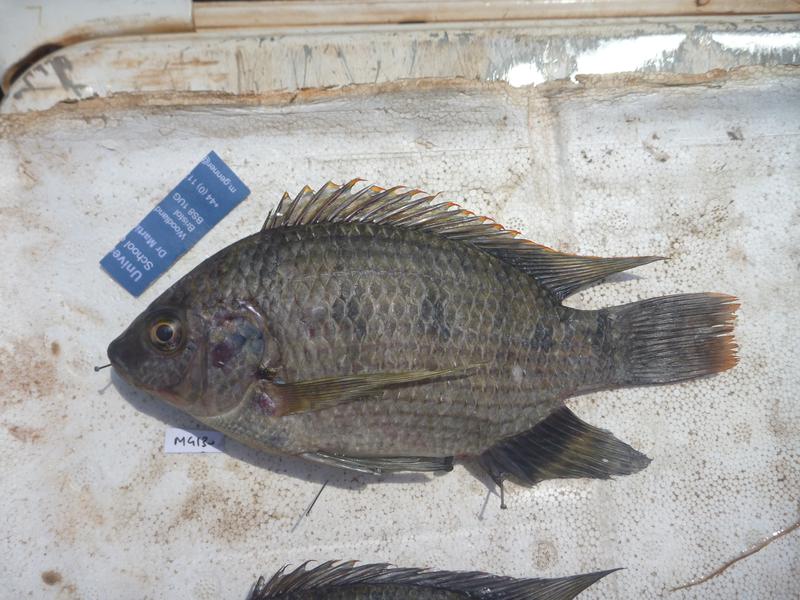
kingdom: Animalia
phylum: Chordata
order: Perciformes
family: Cichlidae
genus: Oreochromis
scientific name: Oreochromis upembae
